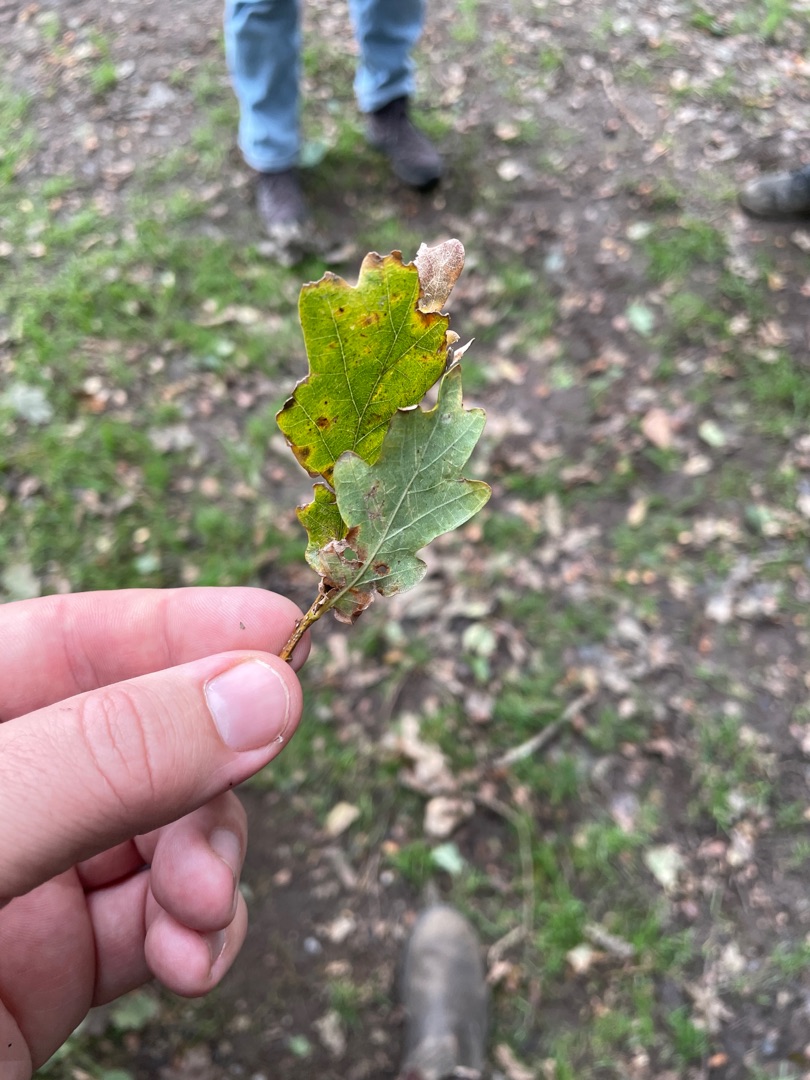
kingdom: Plantae
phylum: Tracheophyta
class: Magnoliopsida
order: Fagales
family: Fagaceae
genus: Quercus
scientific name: Quercus robur
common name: Stilk-eg/almindelig eg
